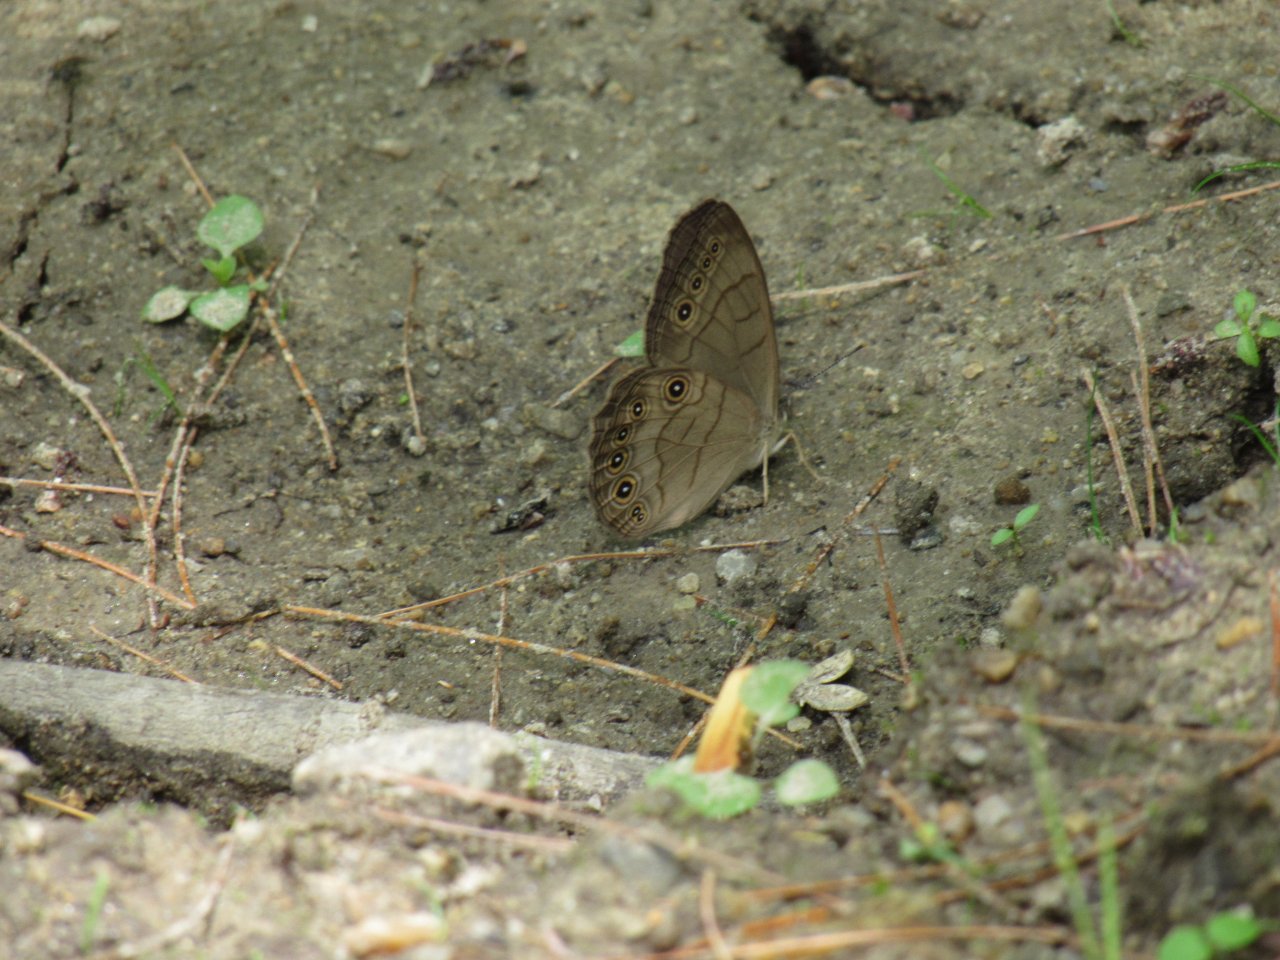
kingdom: Animalia
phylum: Arthropoda
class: Insecta
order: Lepidoptera
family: Nymphalidae
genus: Lethe
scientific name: Lethe eurydice
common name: Appalachian Eyed Brown
